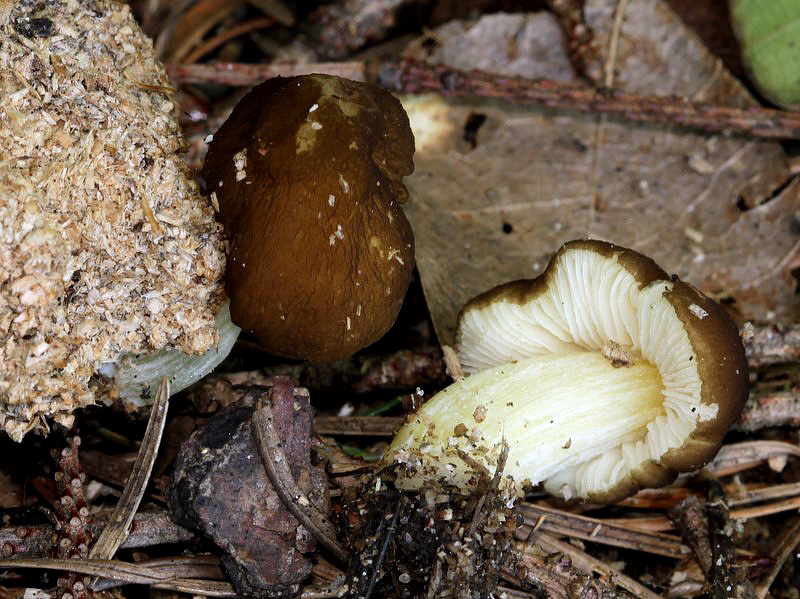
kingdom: Fungi
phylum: Basidiomycota
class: Agaricomycetes
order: Agaricales
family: Pluteaceae
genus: Pluteus
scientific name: Pluteus romellii
